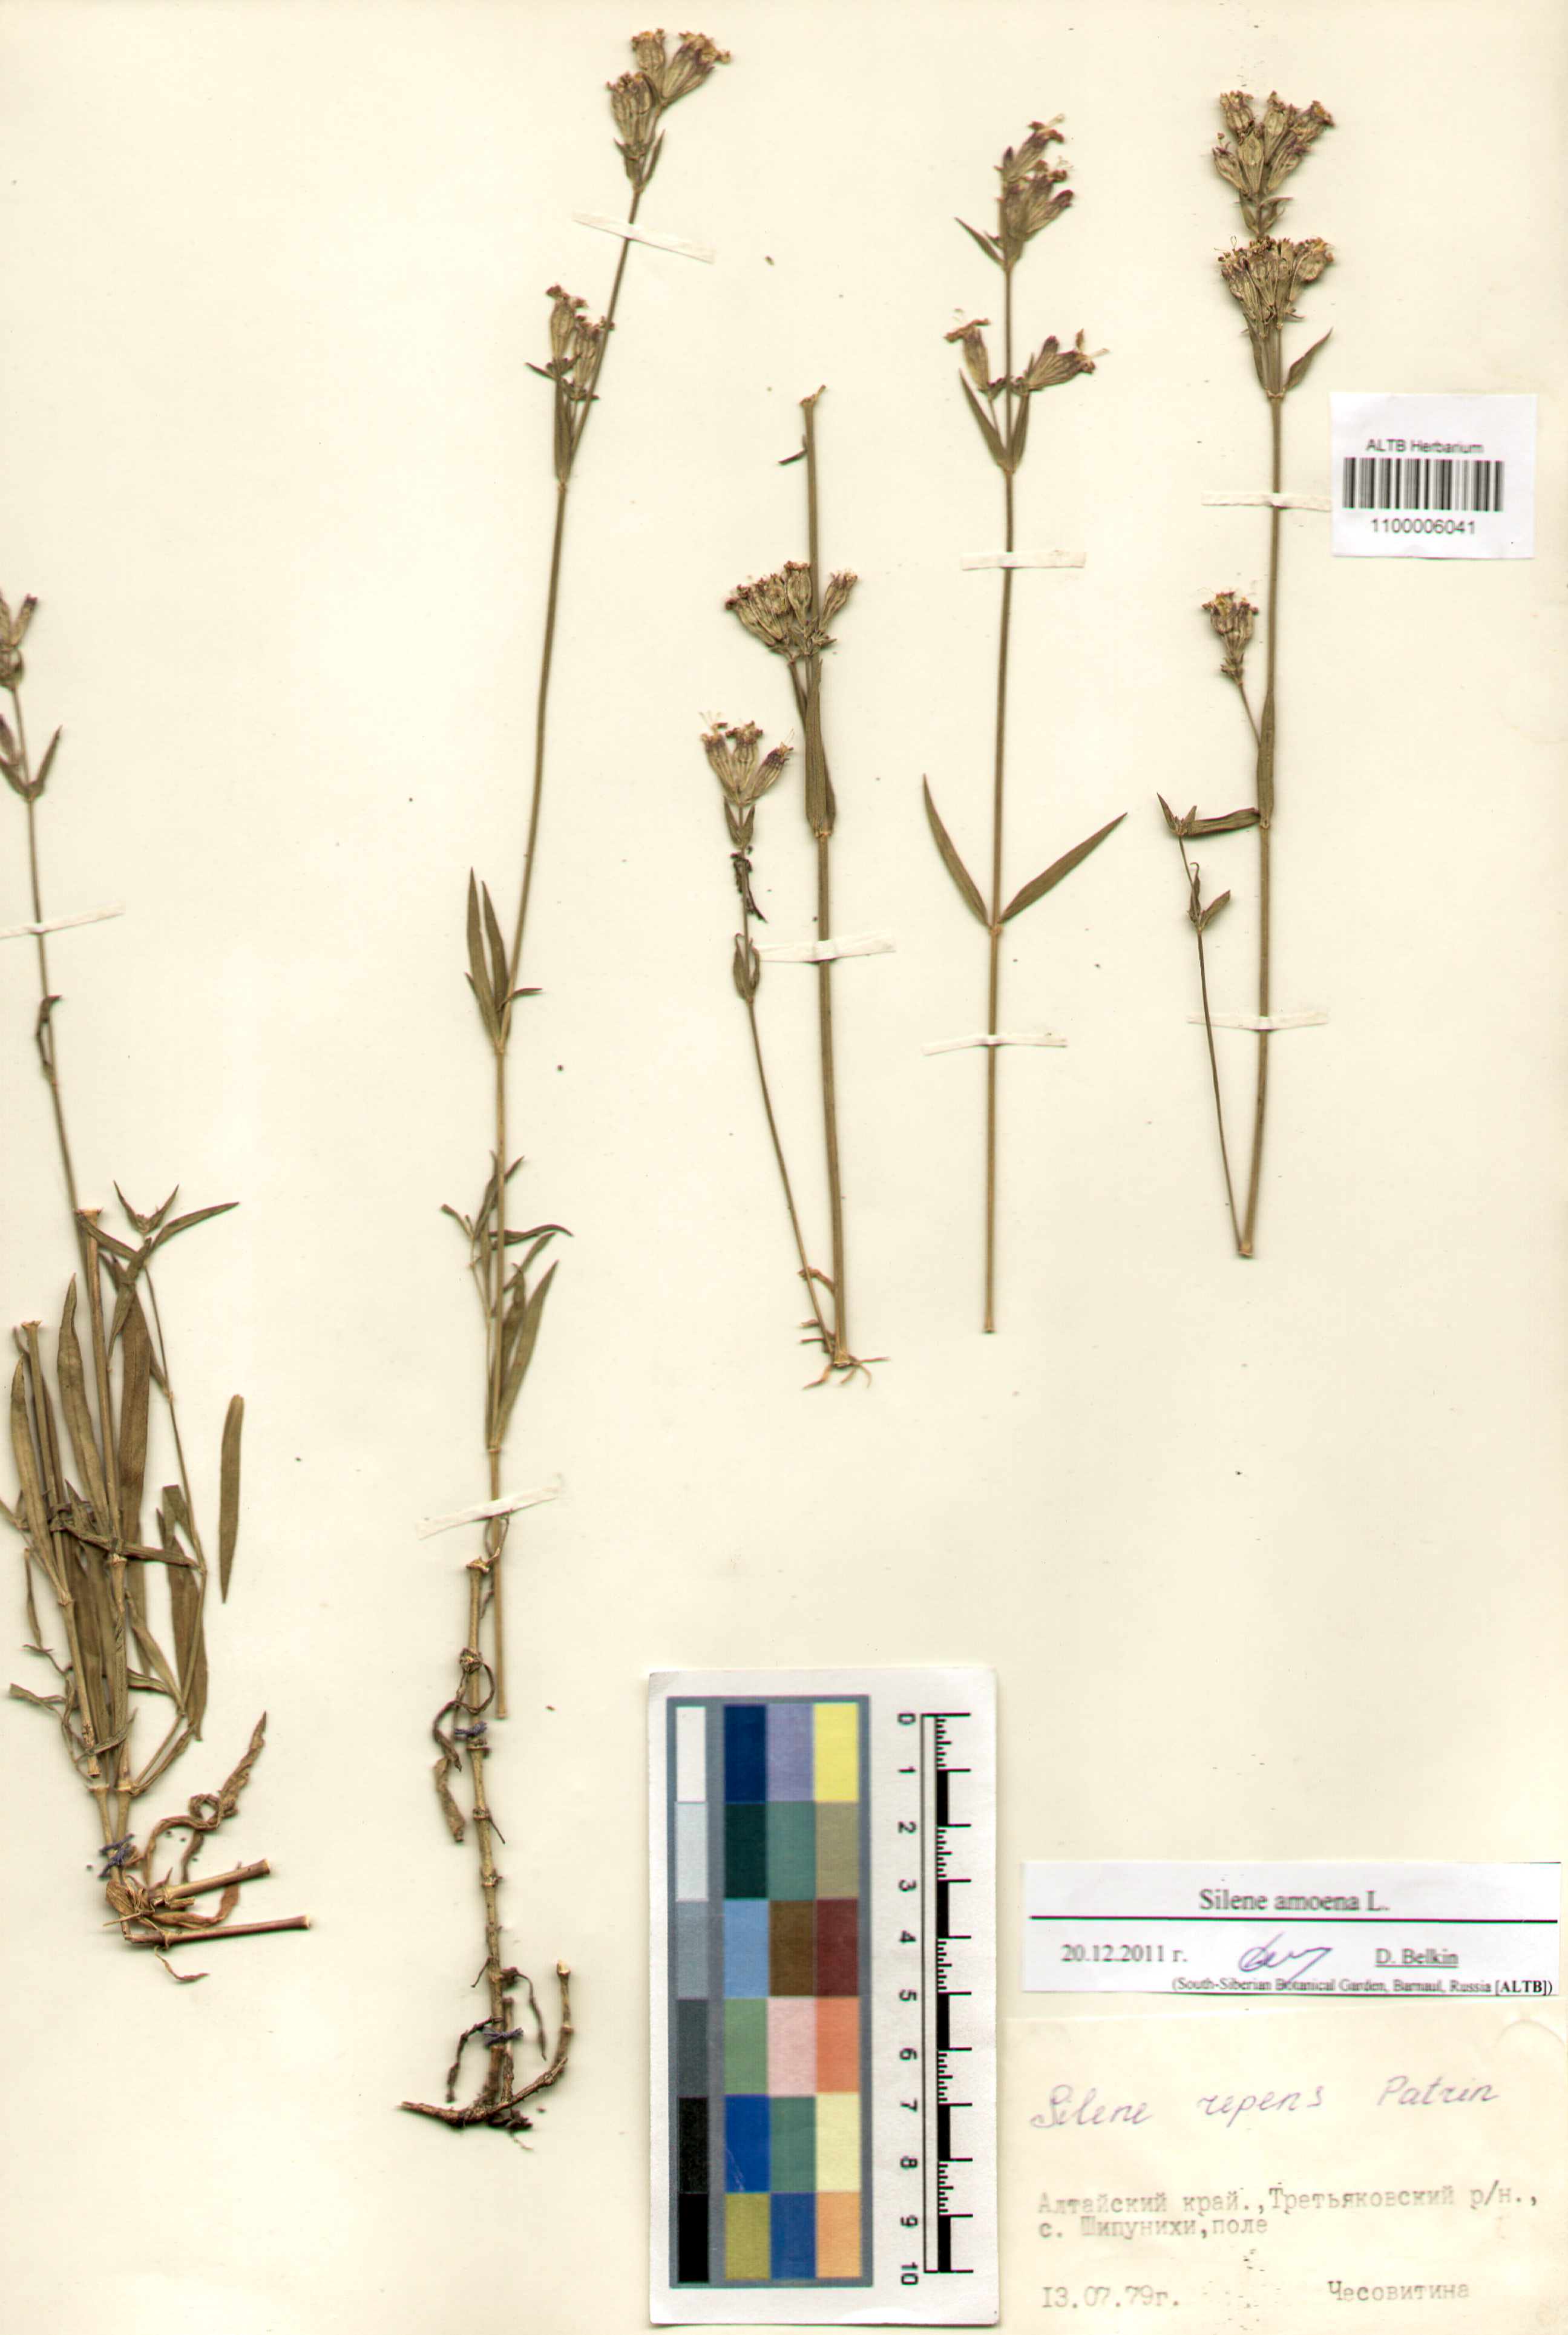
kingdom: Plantae
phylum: Tracheophyta
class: Magnoliopsida
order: Caryophyllales
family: Caryophyllaceae
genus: Silene
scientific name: Silene amoena
